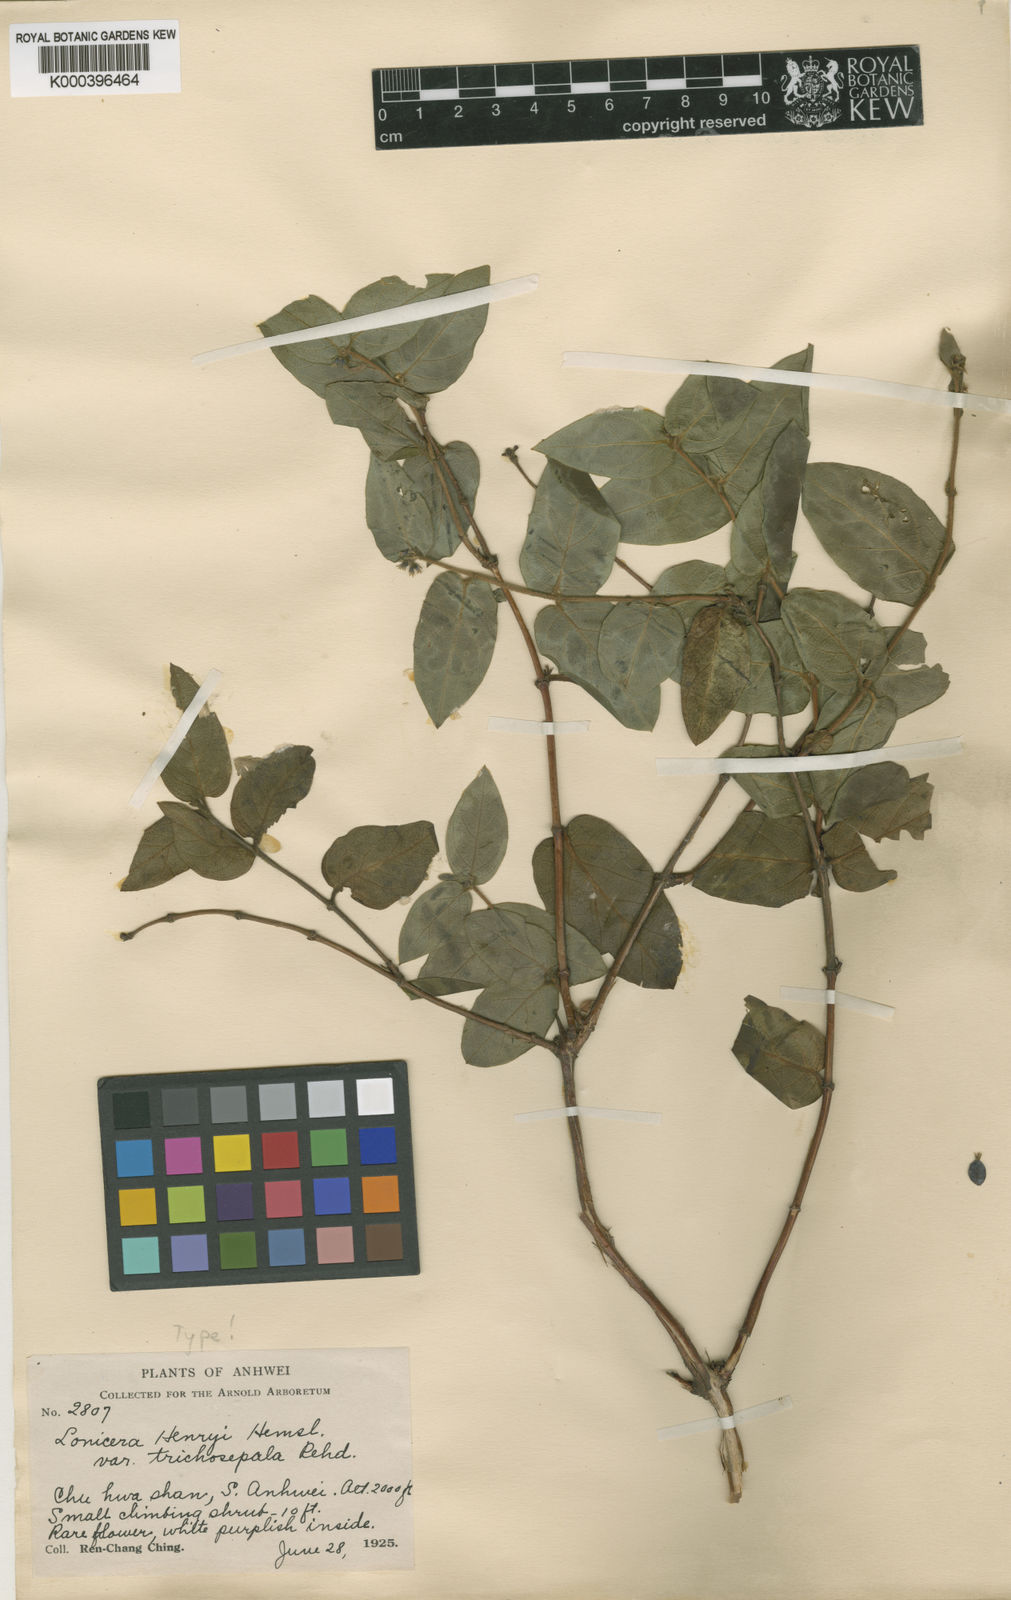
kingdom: Plantae
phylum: Tracheophyta
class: Magnoliopsida
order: Dipsacales
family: Caprifoliaceae
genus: Lonicera
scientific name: Lonicera acuminata
